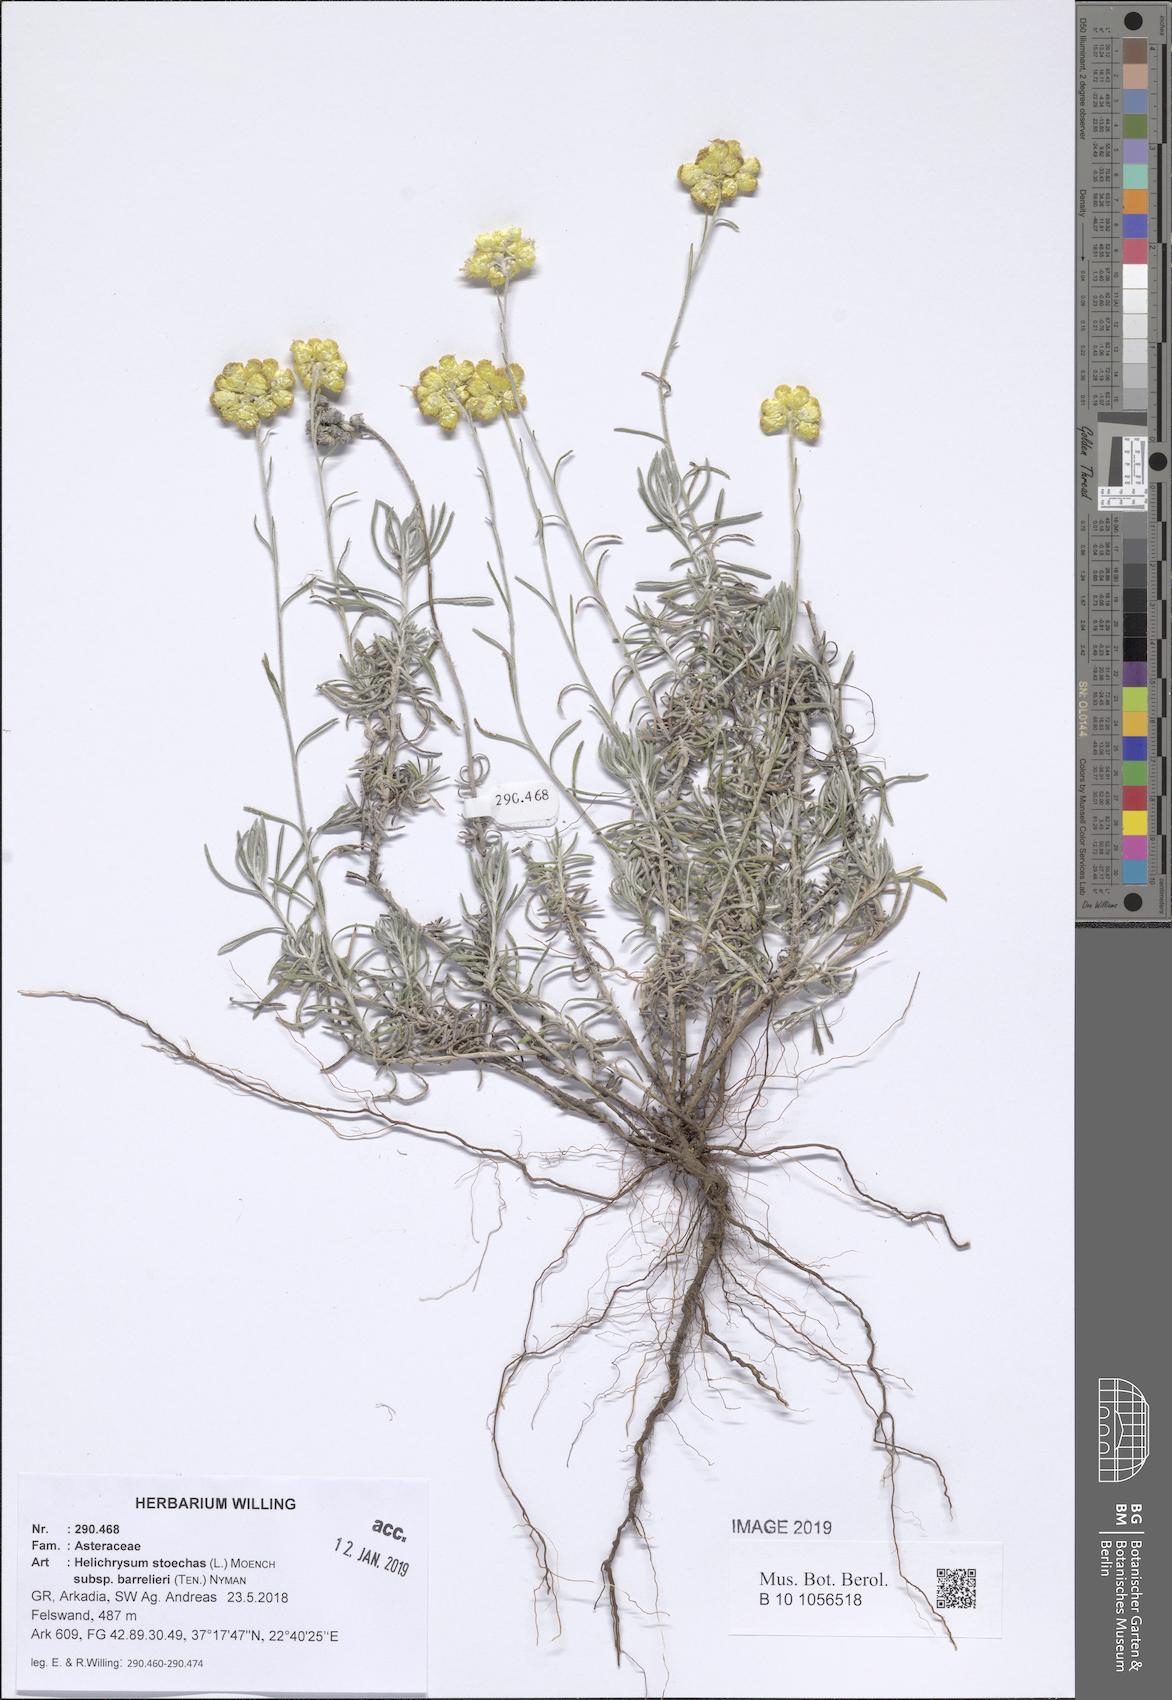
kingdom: Plantae
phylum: Tracheophyta
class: Magnoliopsida
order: Asterales
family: Asteraceae
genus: Helichrysum
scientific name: Helichrysum stoechas
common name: Goldilocks
